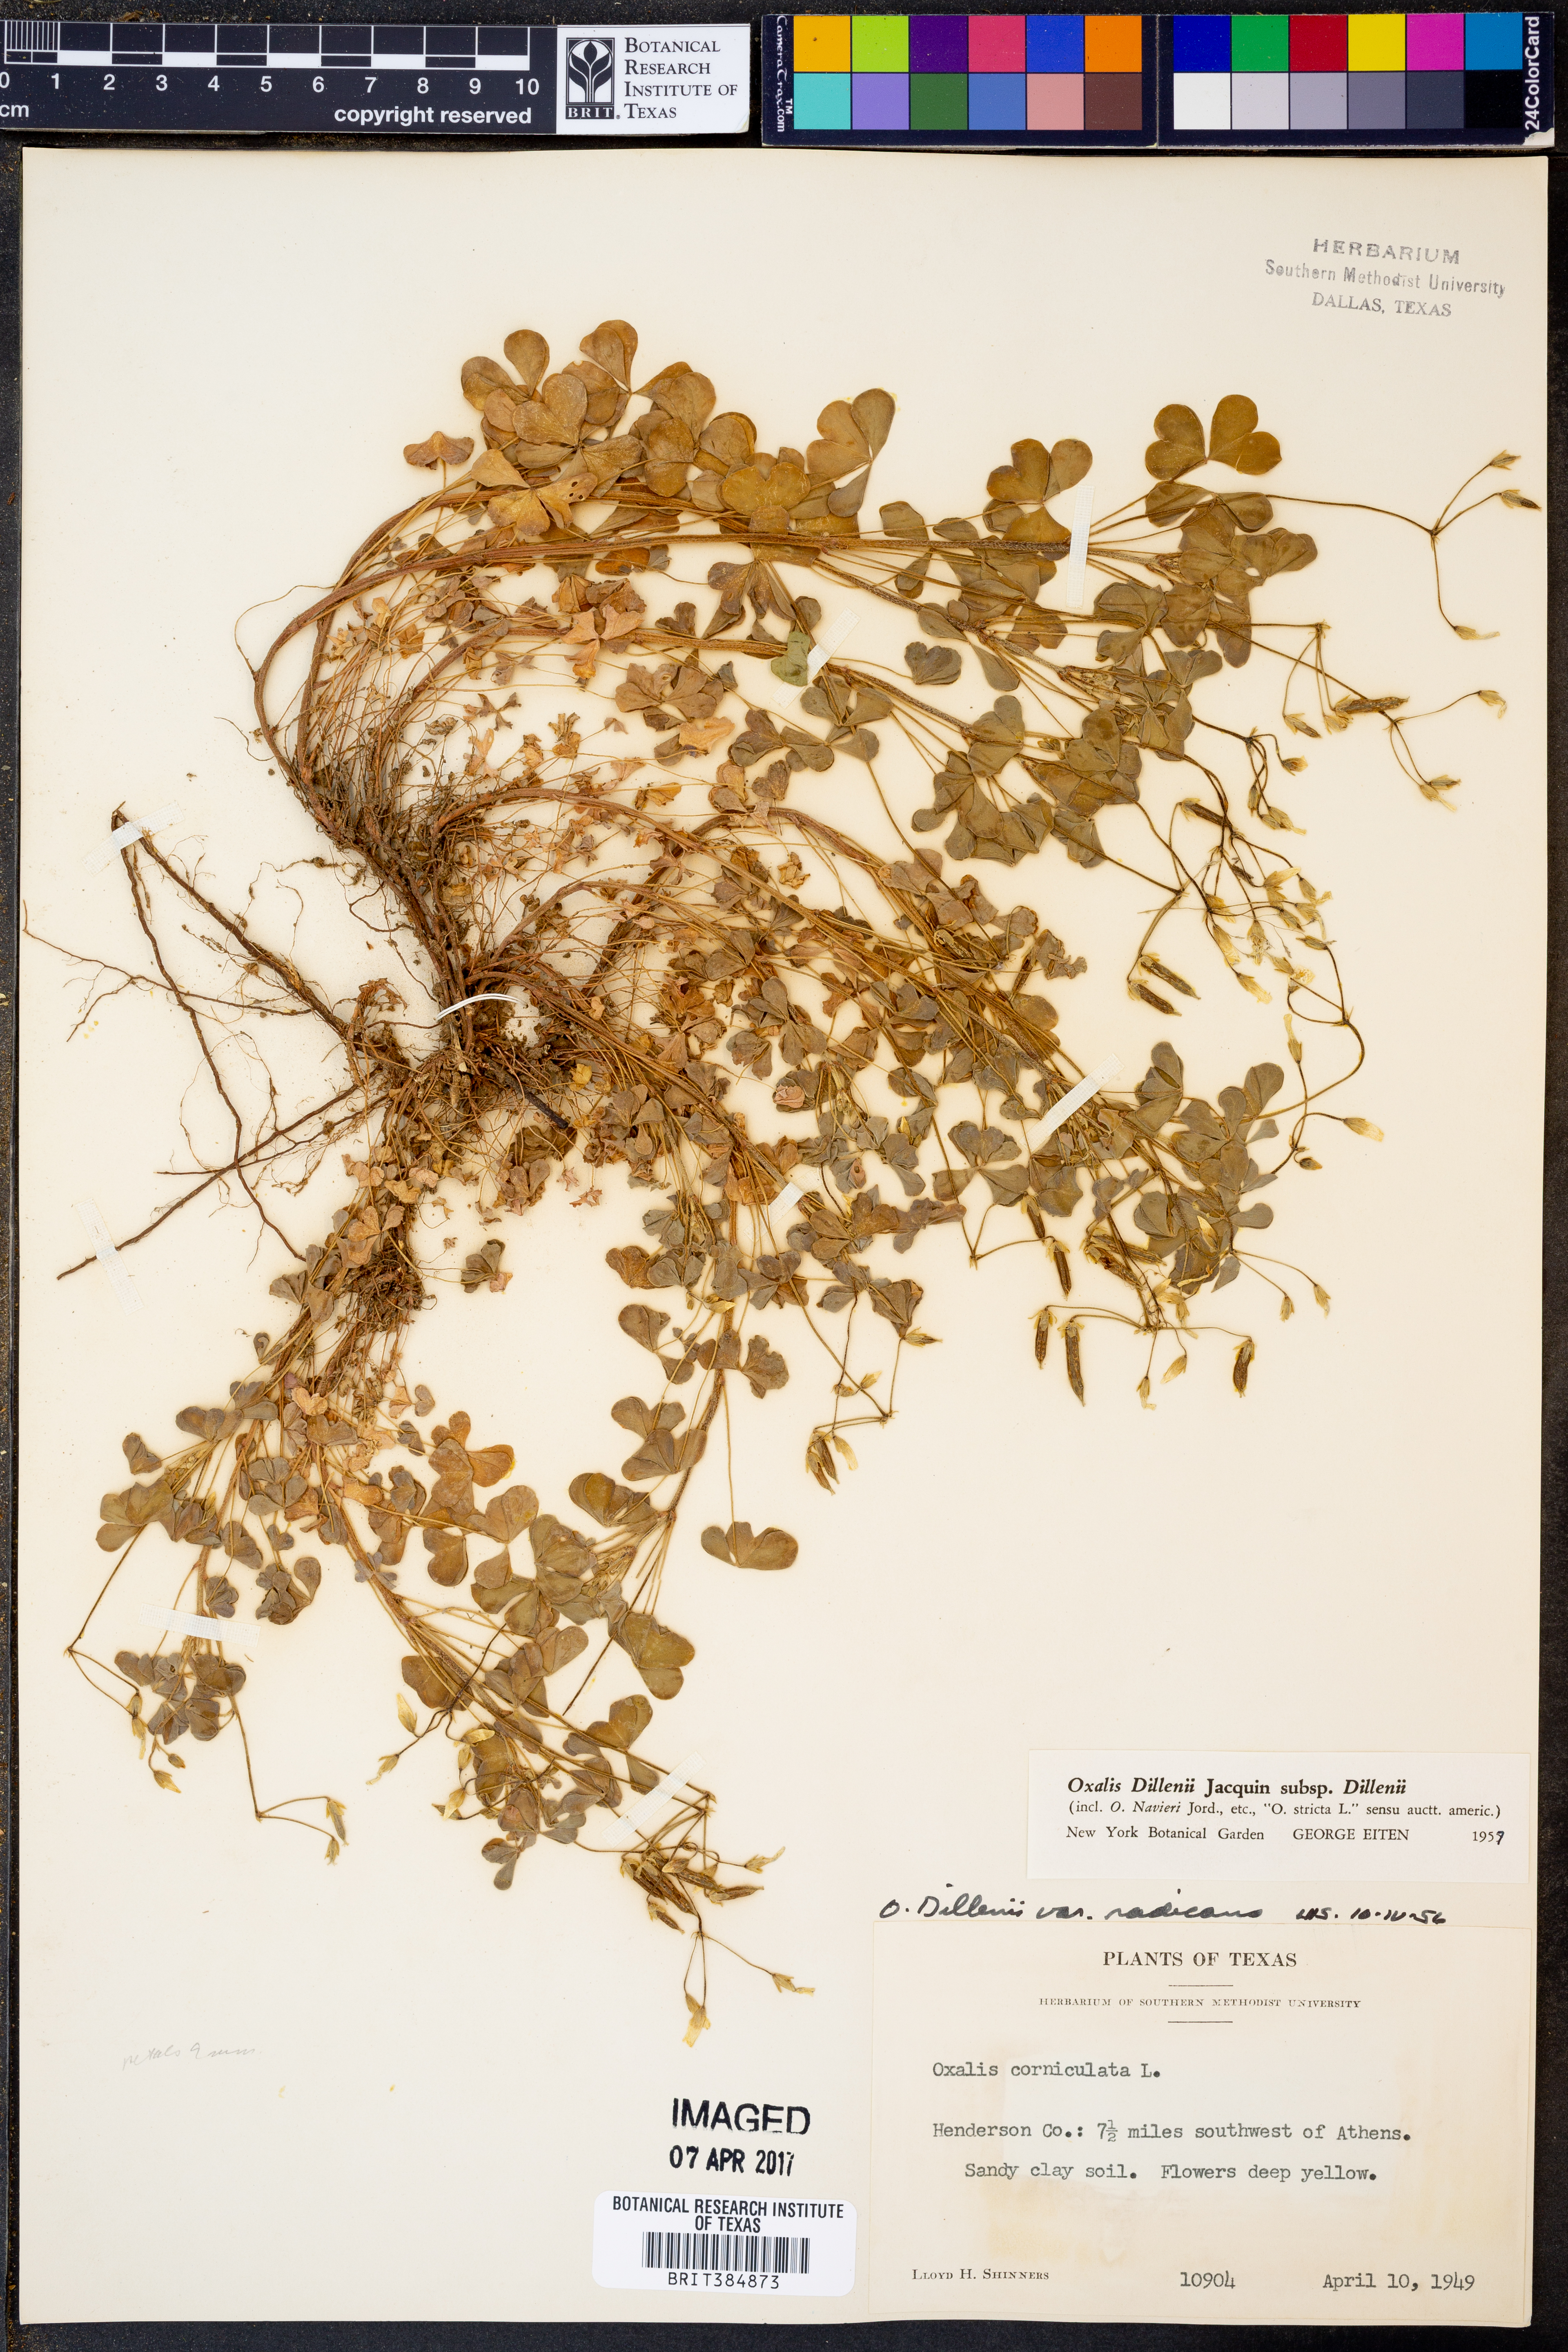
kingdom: Plantae
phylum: Tracheophyta
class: Magnoliopsida
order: Oxalidales
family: Oxalidaceae
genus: Oxalis
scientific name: Oxalis dillenii
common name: Sussex yellow-sorrel
